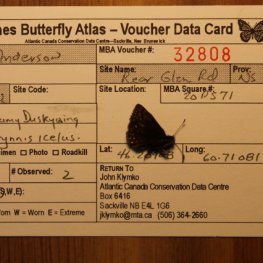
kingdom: Animalia
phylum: Arthropoda
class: Insecta
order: Lepidoptera
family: Hesperiidae
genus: Erynnis
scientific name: Erynnis icelus
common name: Dreamy Duskywing
